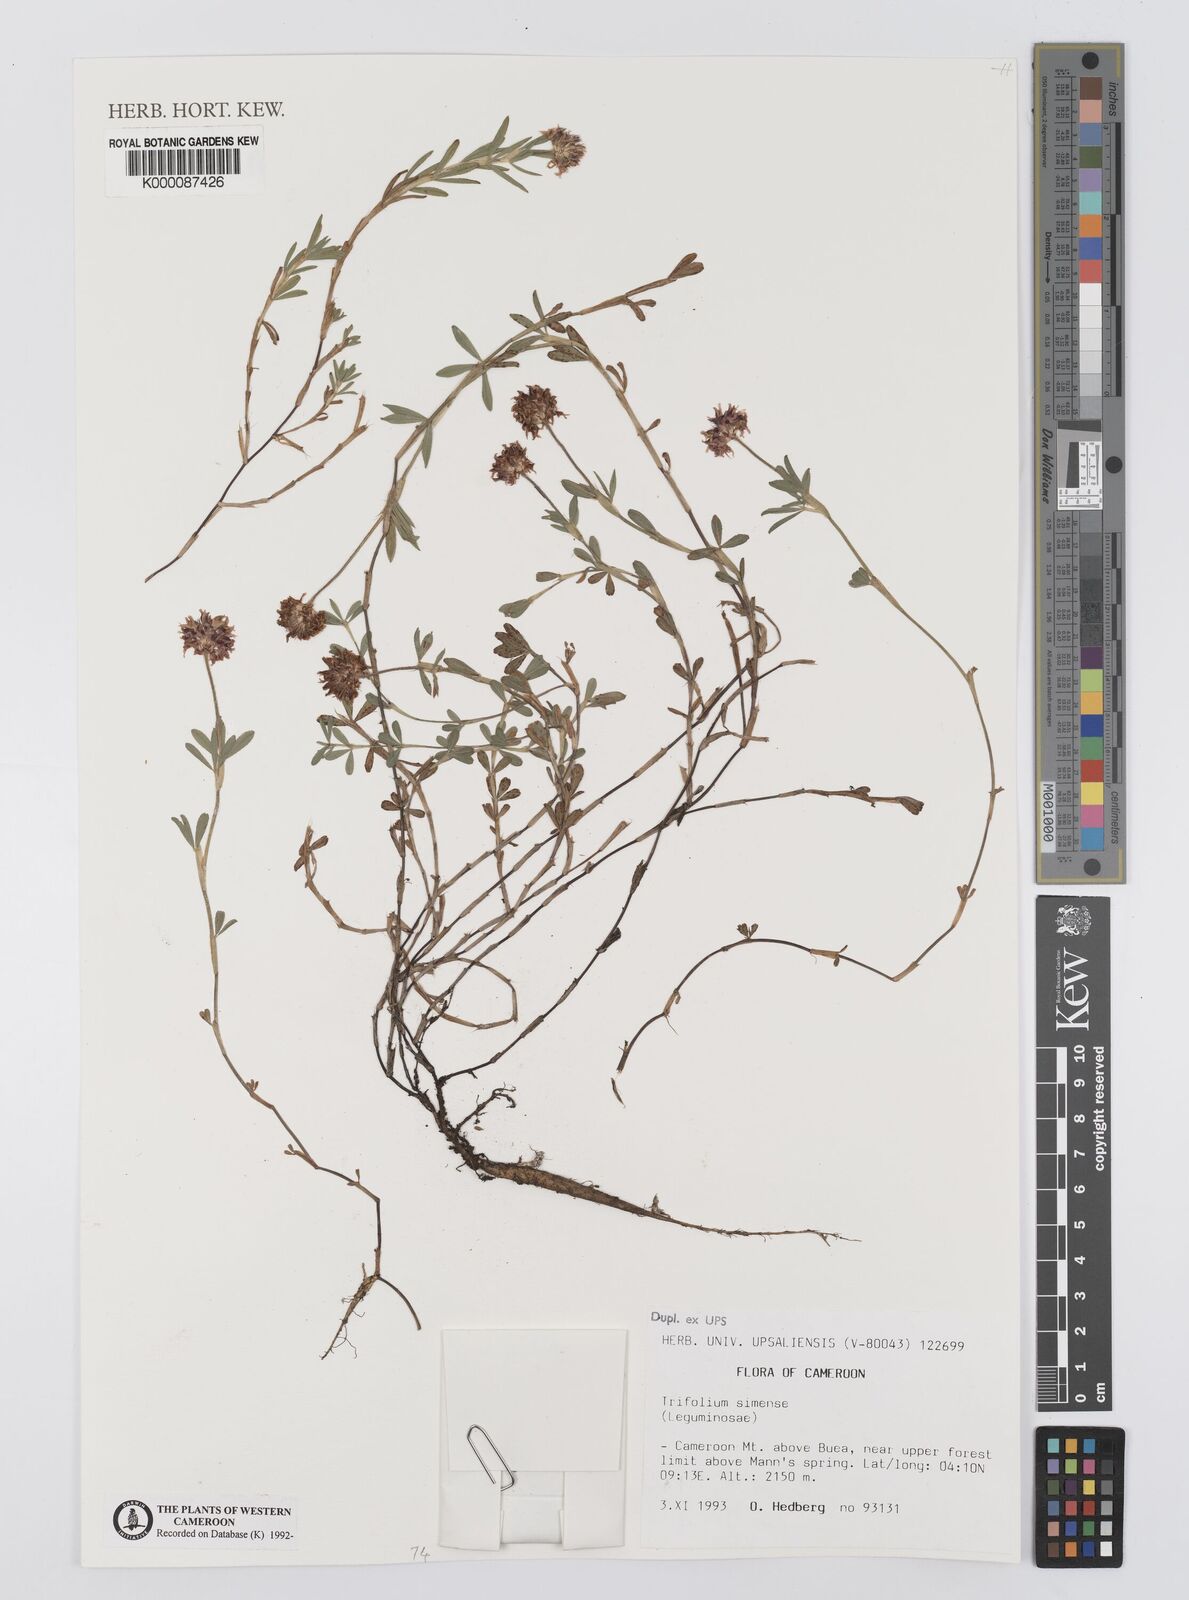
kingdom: Plantae
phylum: Tracheophyta
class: Magnoliopsida
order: Fabales
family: Fabaceae
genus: Trifolium
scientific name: Trifolium simense
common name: Simen clover
